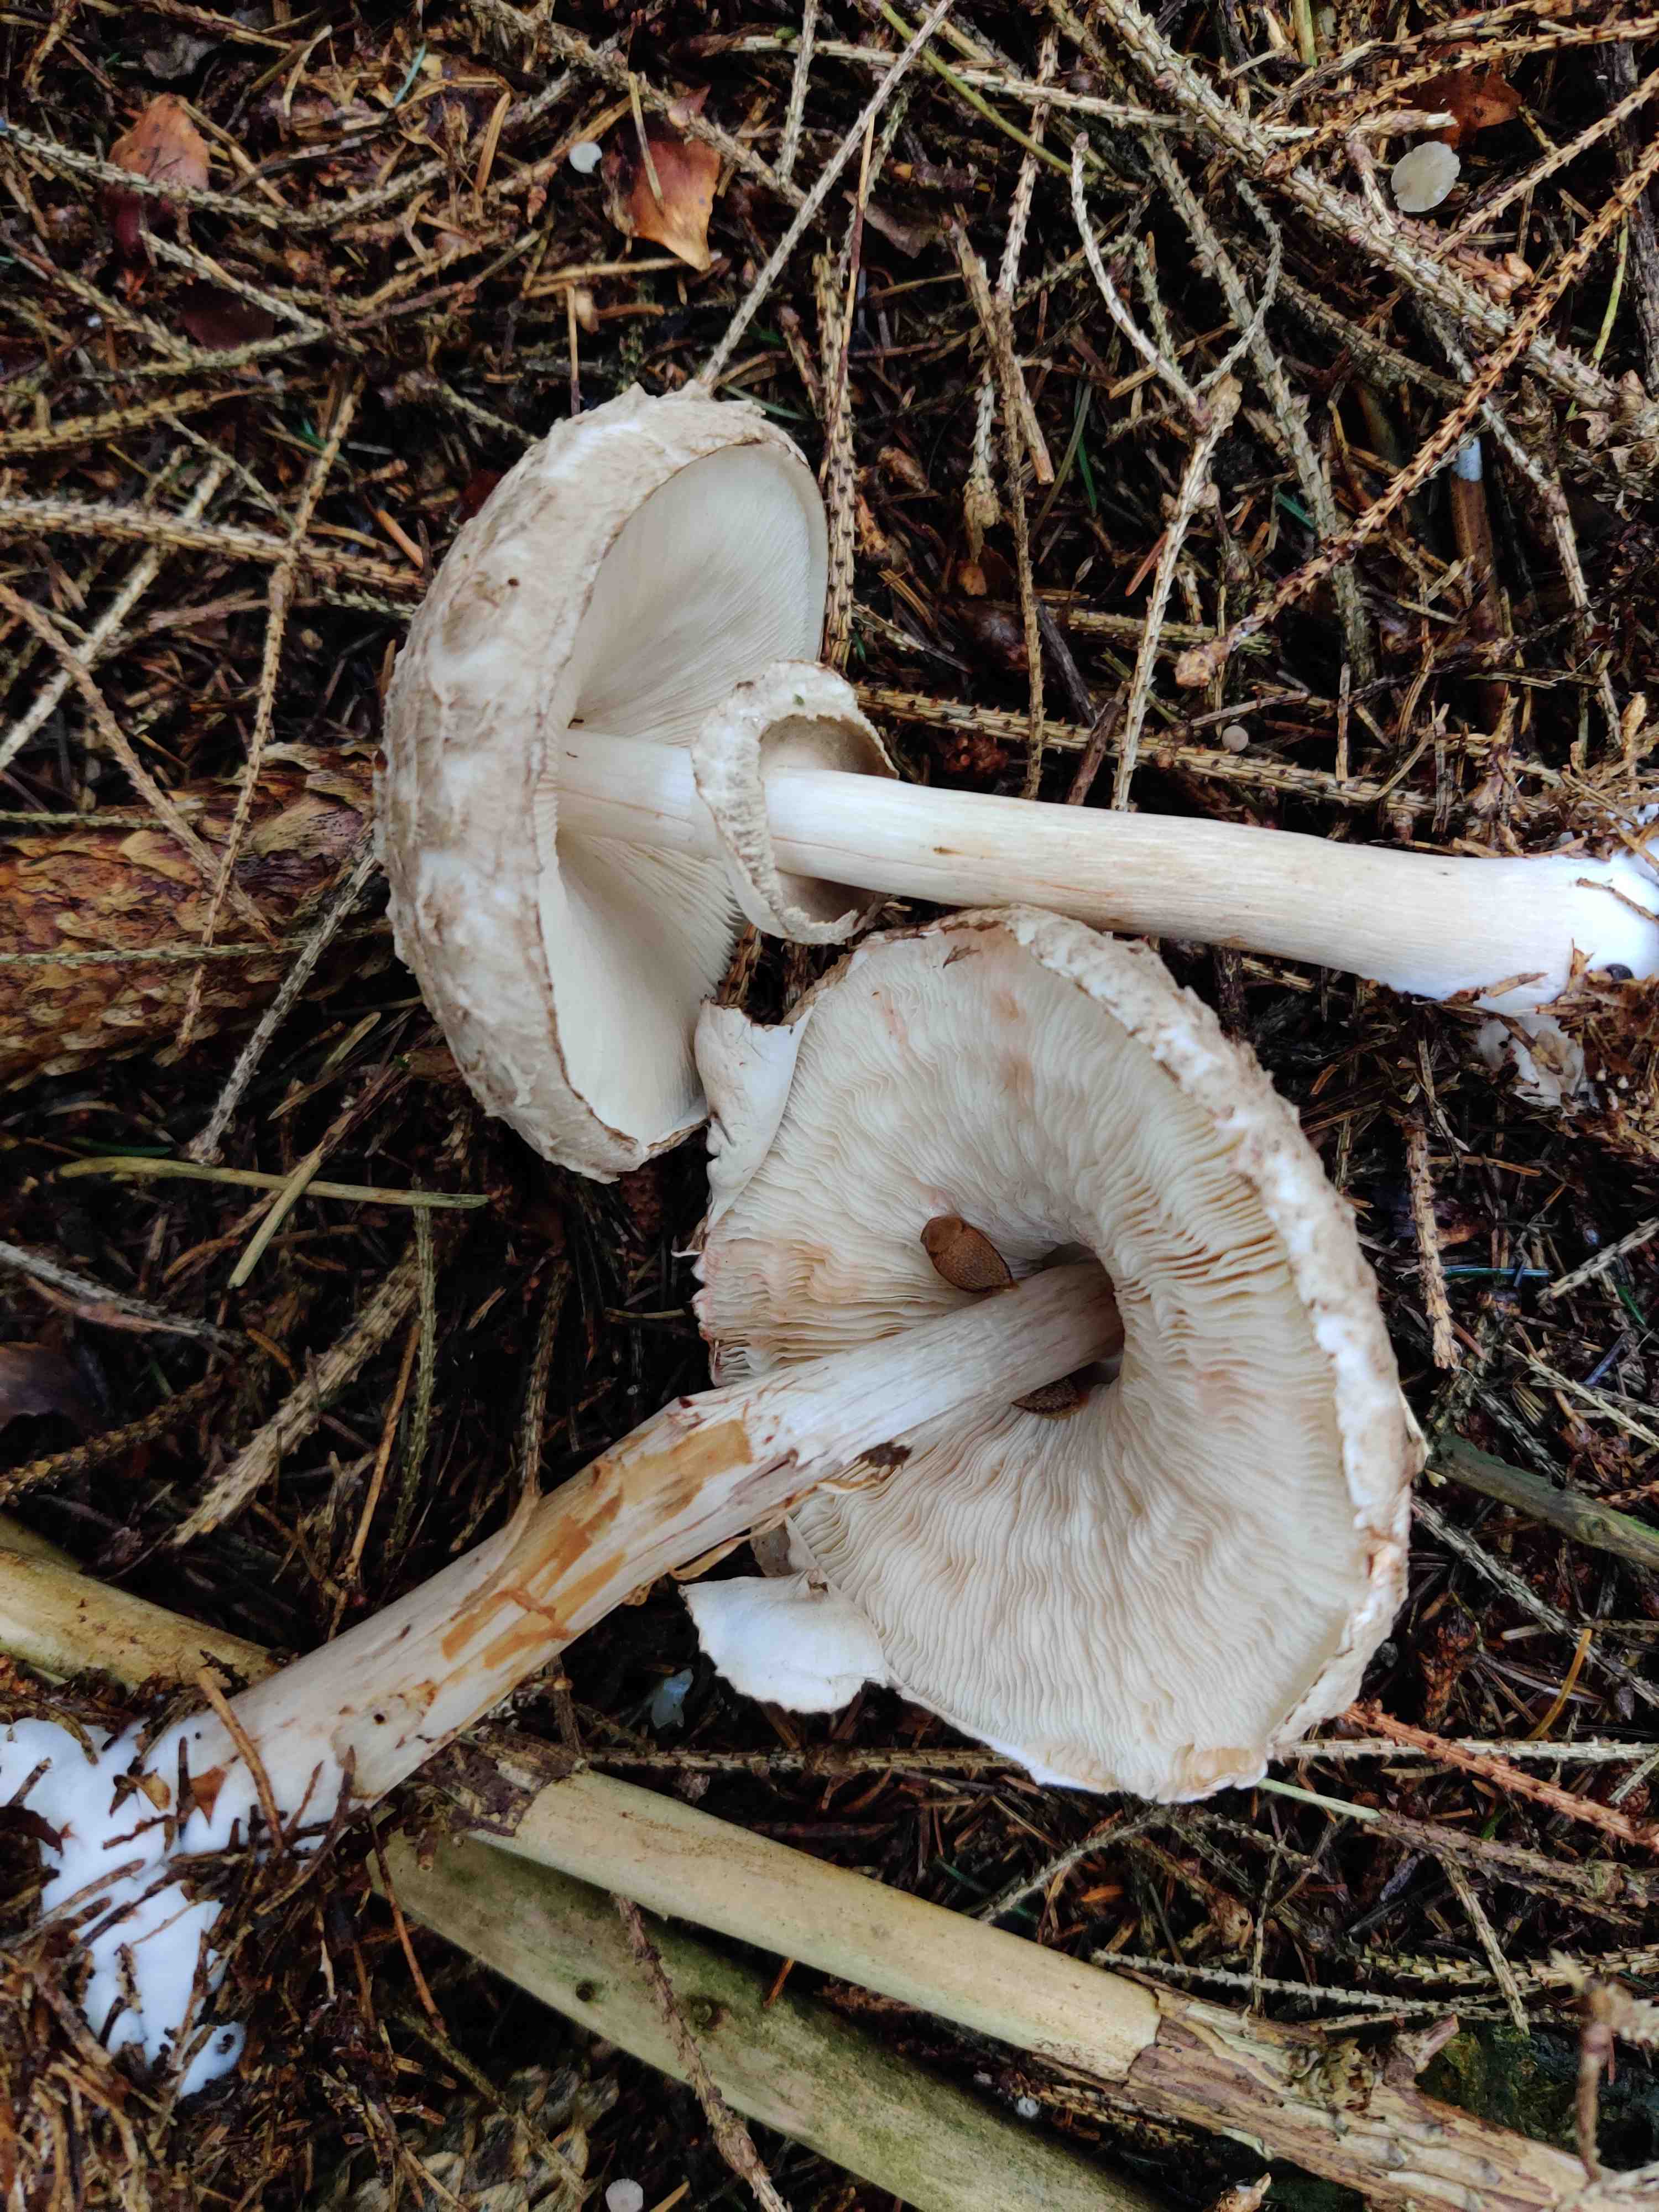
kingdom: Fungi
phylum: Basidiomycota
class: Agaricomycetes
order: Agaricales
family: Agaricaceae
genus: Chlorophyllum
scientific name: Chlorophyllum olivieri
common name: almindelig rabarberhat
